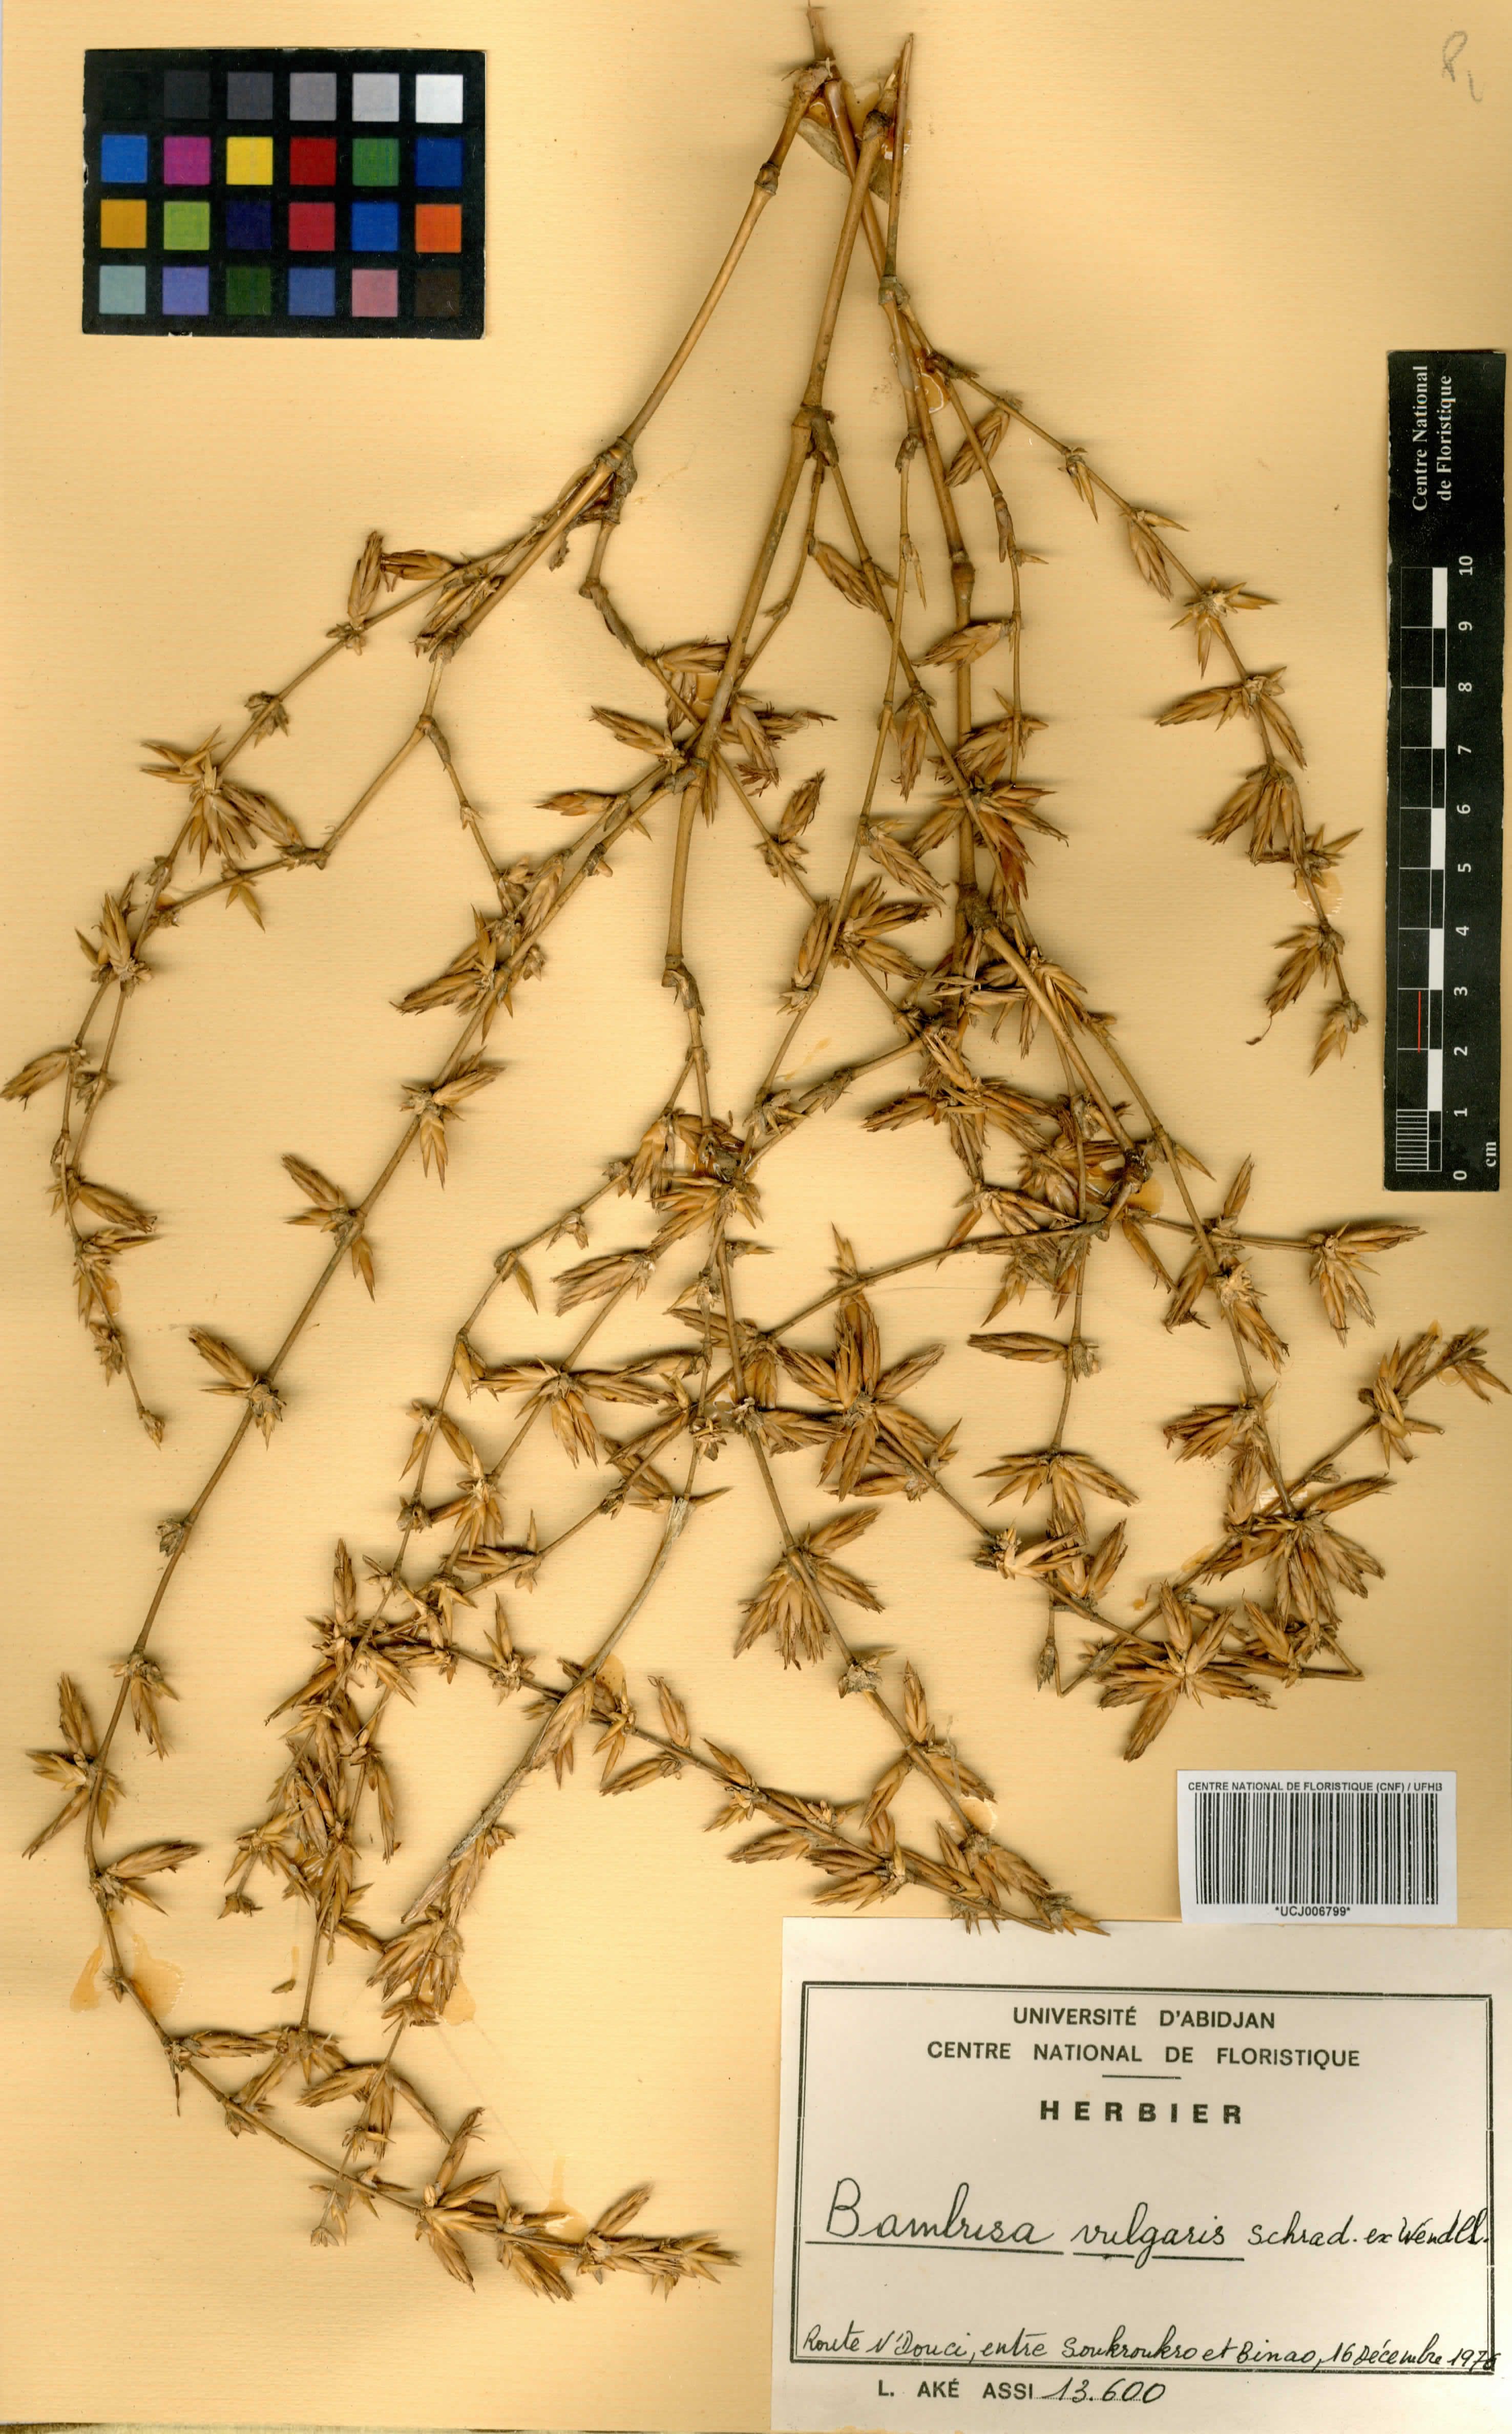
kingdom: Plantae
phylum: Tracheophyta
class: Liliopsida
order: Poales
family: Poaceae
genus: Bambusa
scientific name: Bambusa vulgaris
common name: Common bamboo
